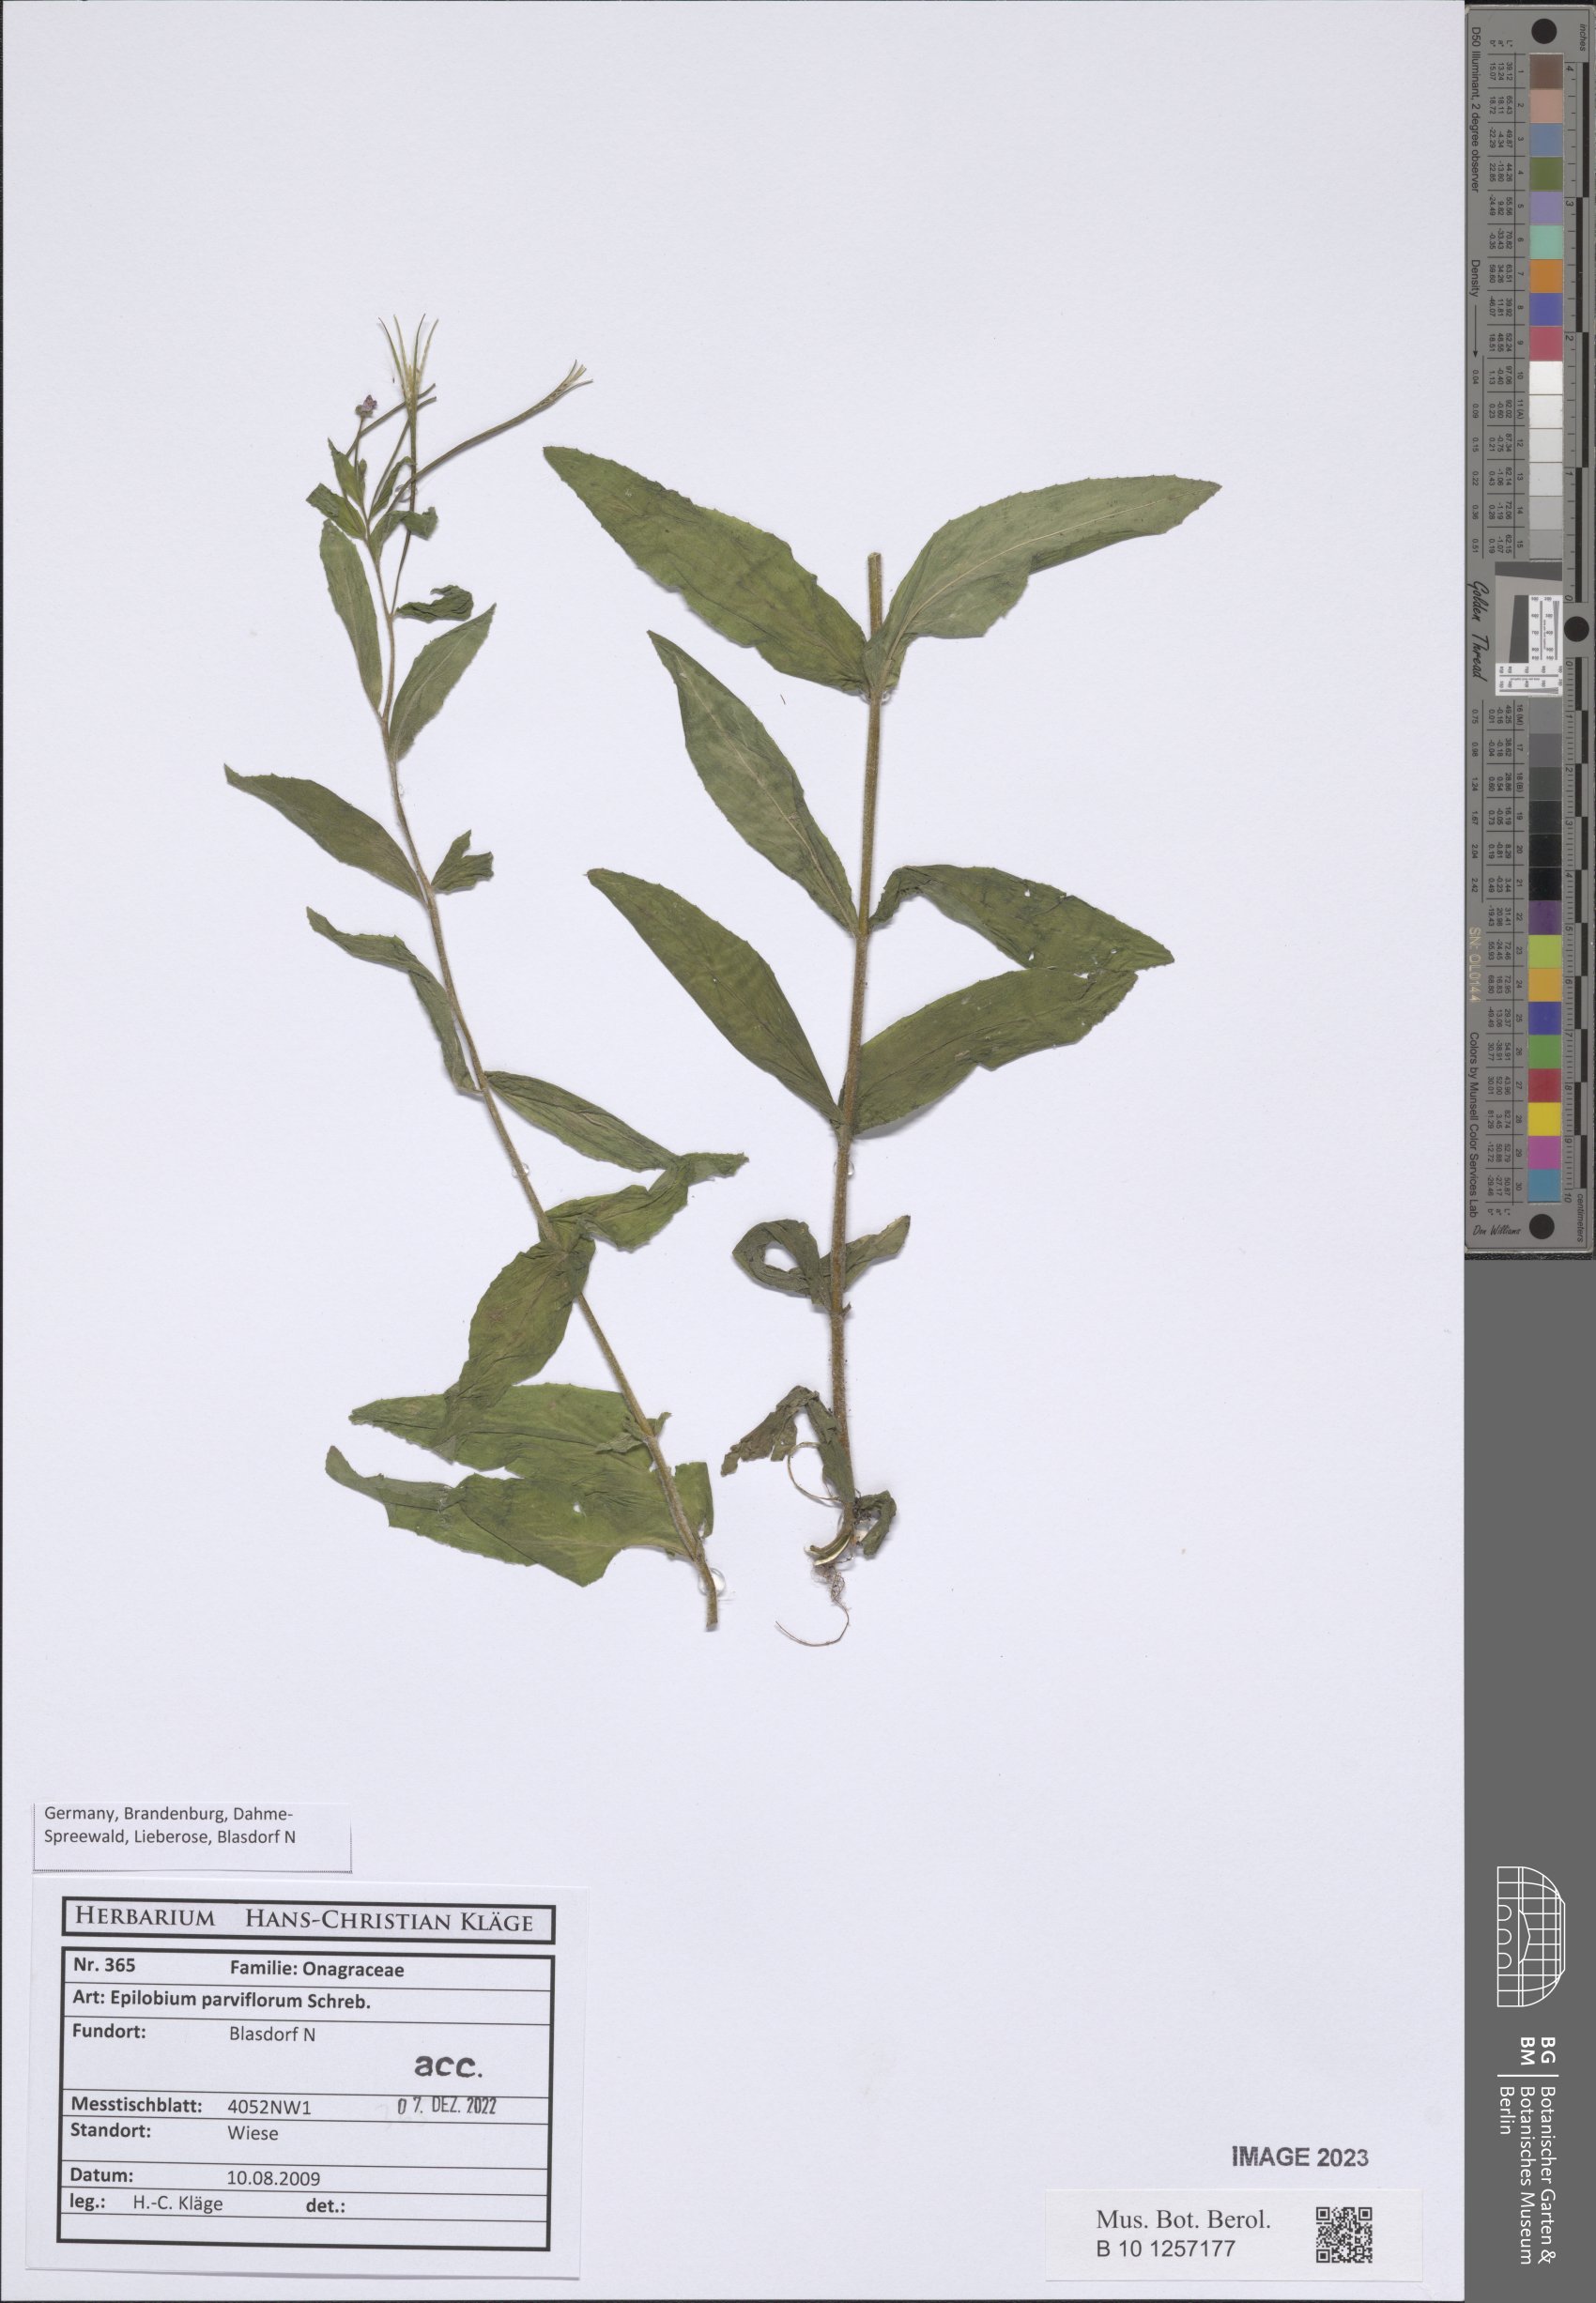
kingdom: Plantae
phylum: Tracheophyta
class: Magnoliopsida
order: Myrtales
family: Onagraceae
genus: Epilobium
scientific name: Epilobium parviflorum
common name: Hoary willowherb
